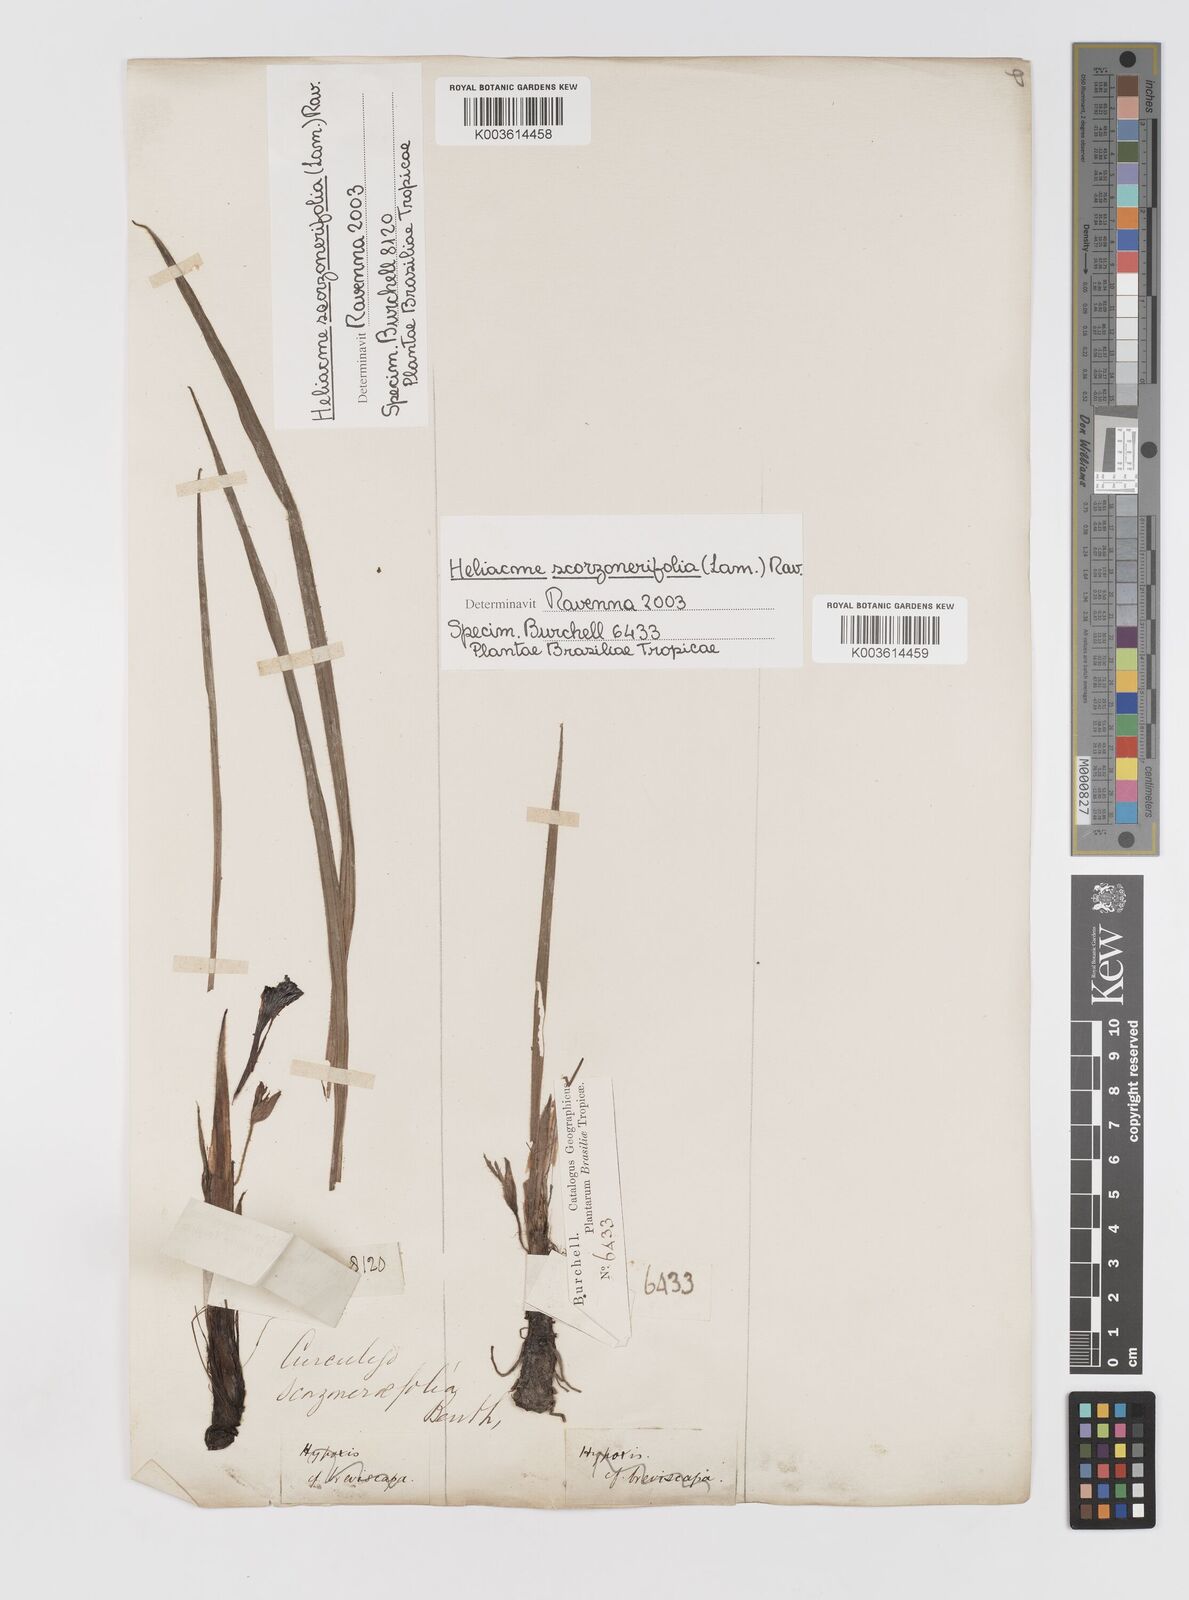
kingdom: Plantae
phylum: Tracheophyta
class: Liliopsida
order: Asparagales
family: Hypoxidaceae
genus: Curculigo
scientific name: Curculigo scorzonerifolia
